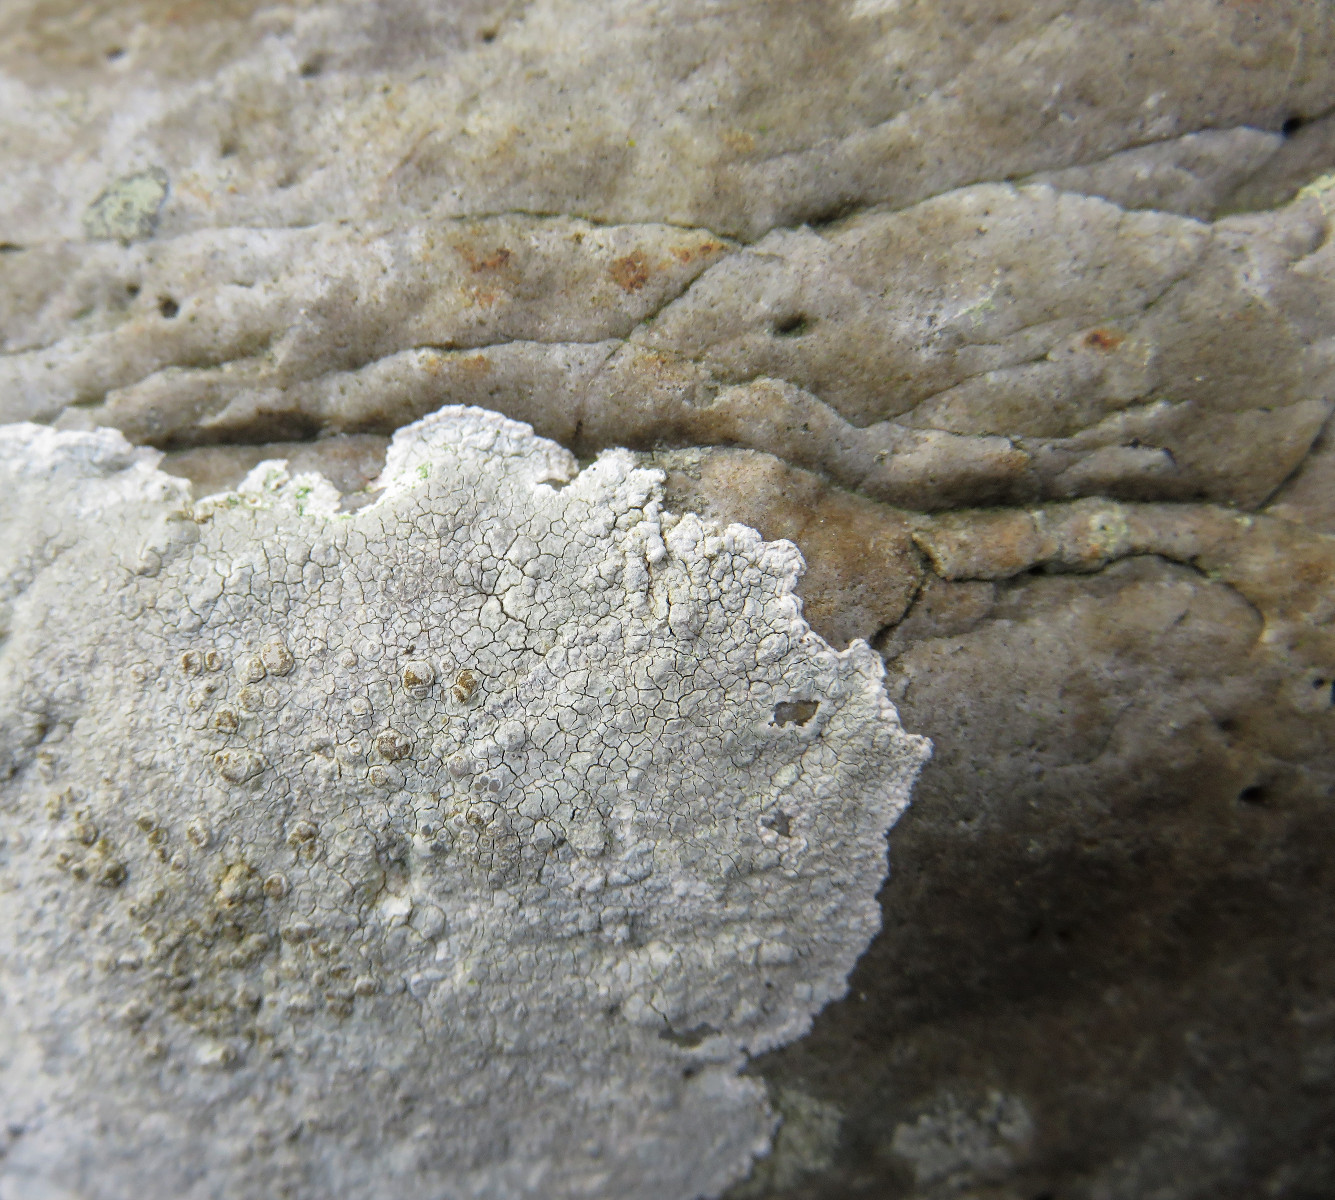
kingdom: Fungi
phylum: Ascomycota
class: Lecanoromycetes
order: Lecanorales
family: Lecanoraceae
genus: Glaucomaria
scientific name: Glaucomaria rupicola
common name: stengærde-kantskivelav
